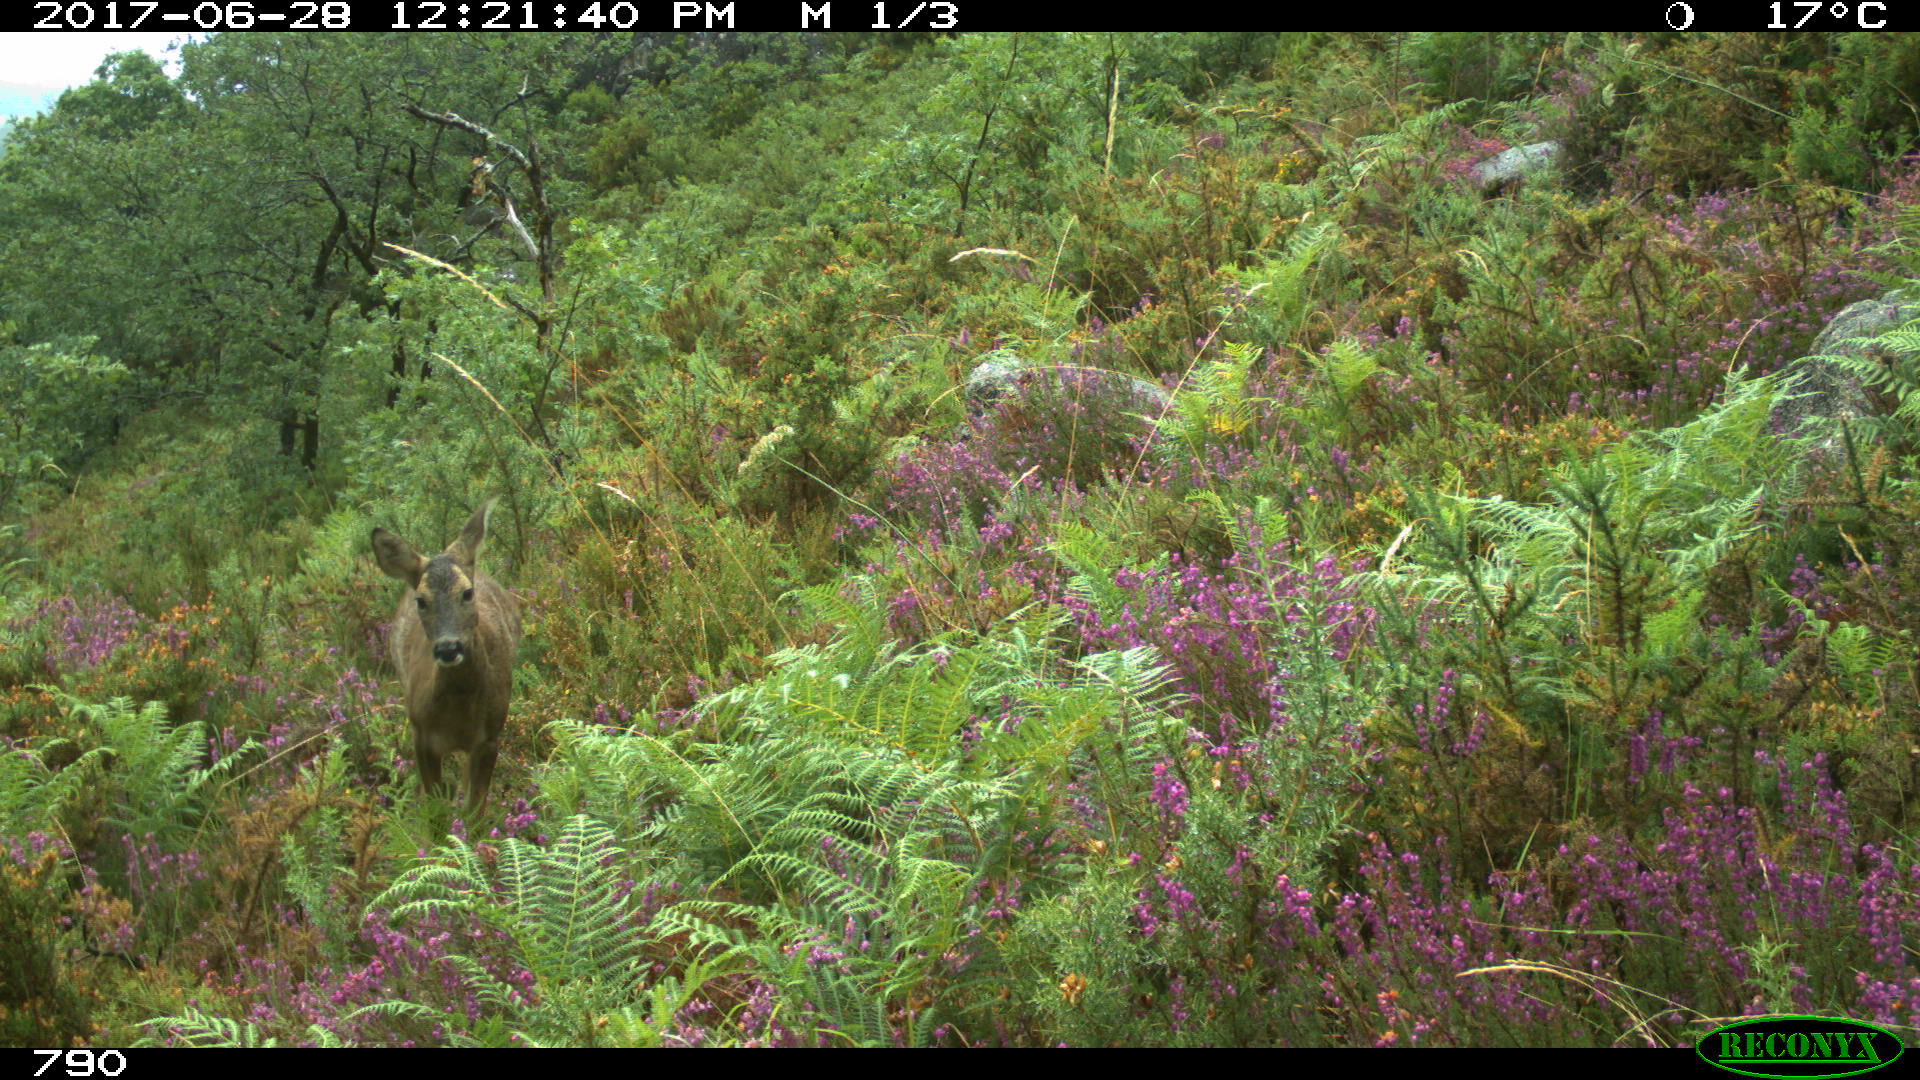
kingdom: Animalia
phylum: Chordata
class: Mammalia
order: Artiodactyla
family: Cervidae
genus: Capreolus
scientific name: Capreolus capreolus
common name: Western roe deer
